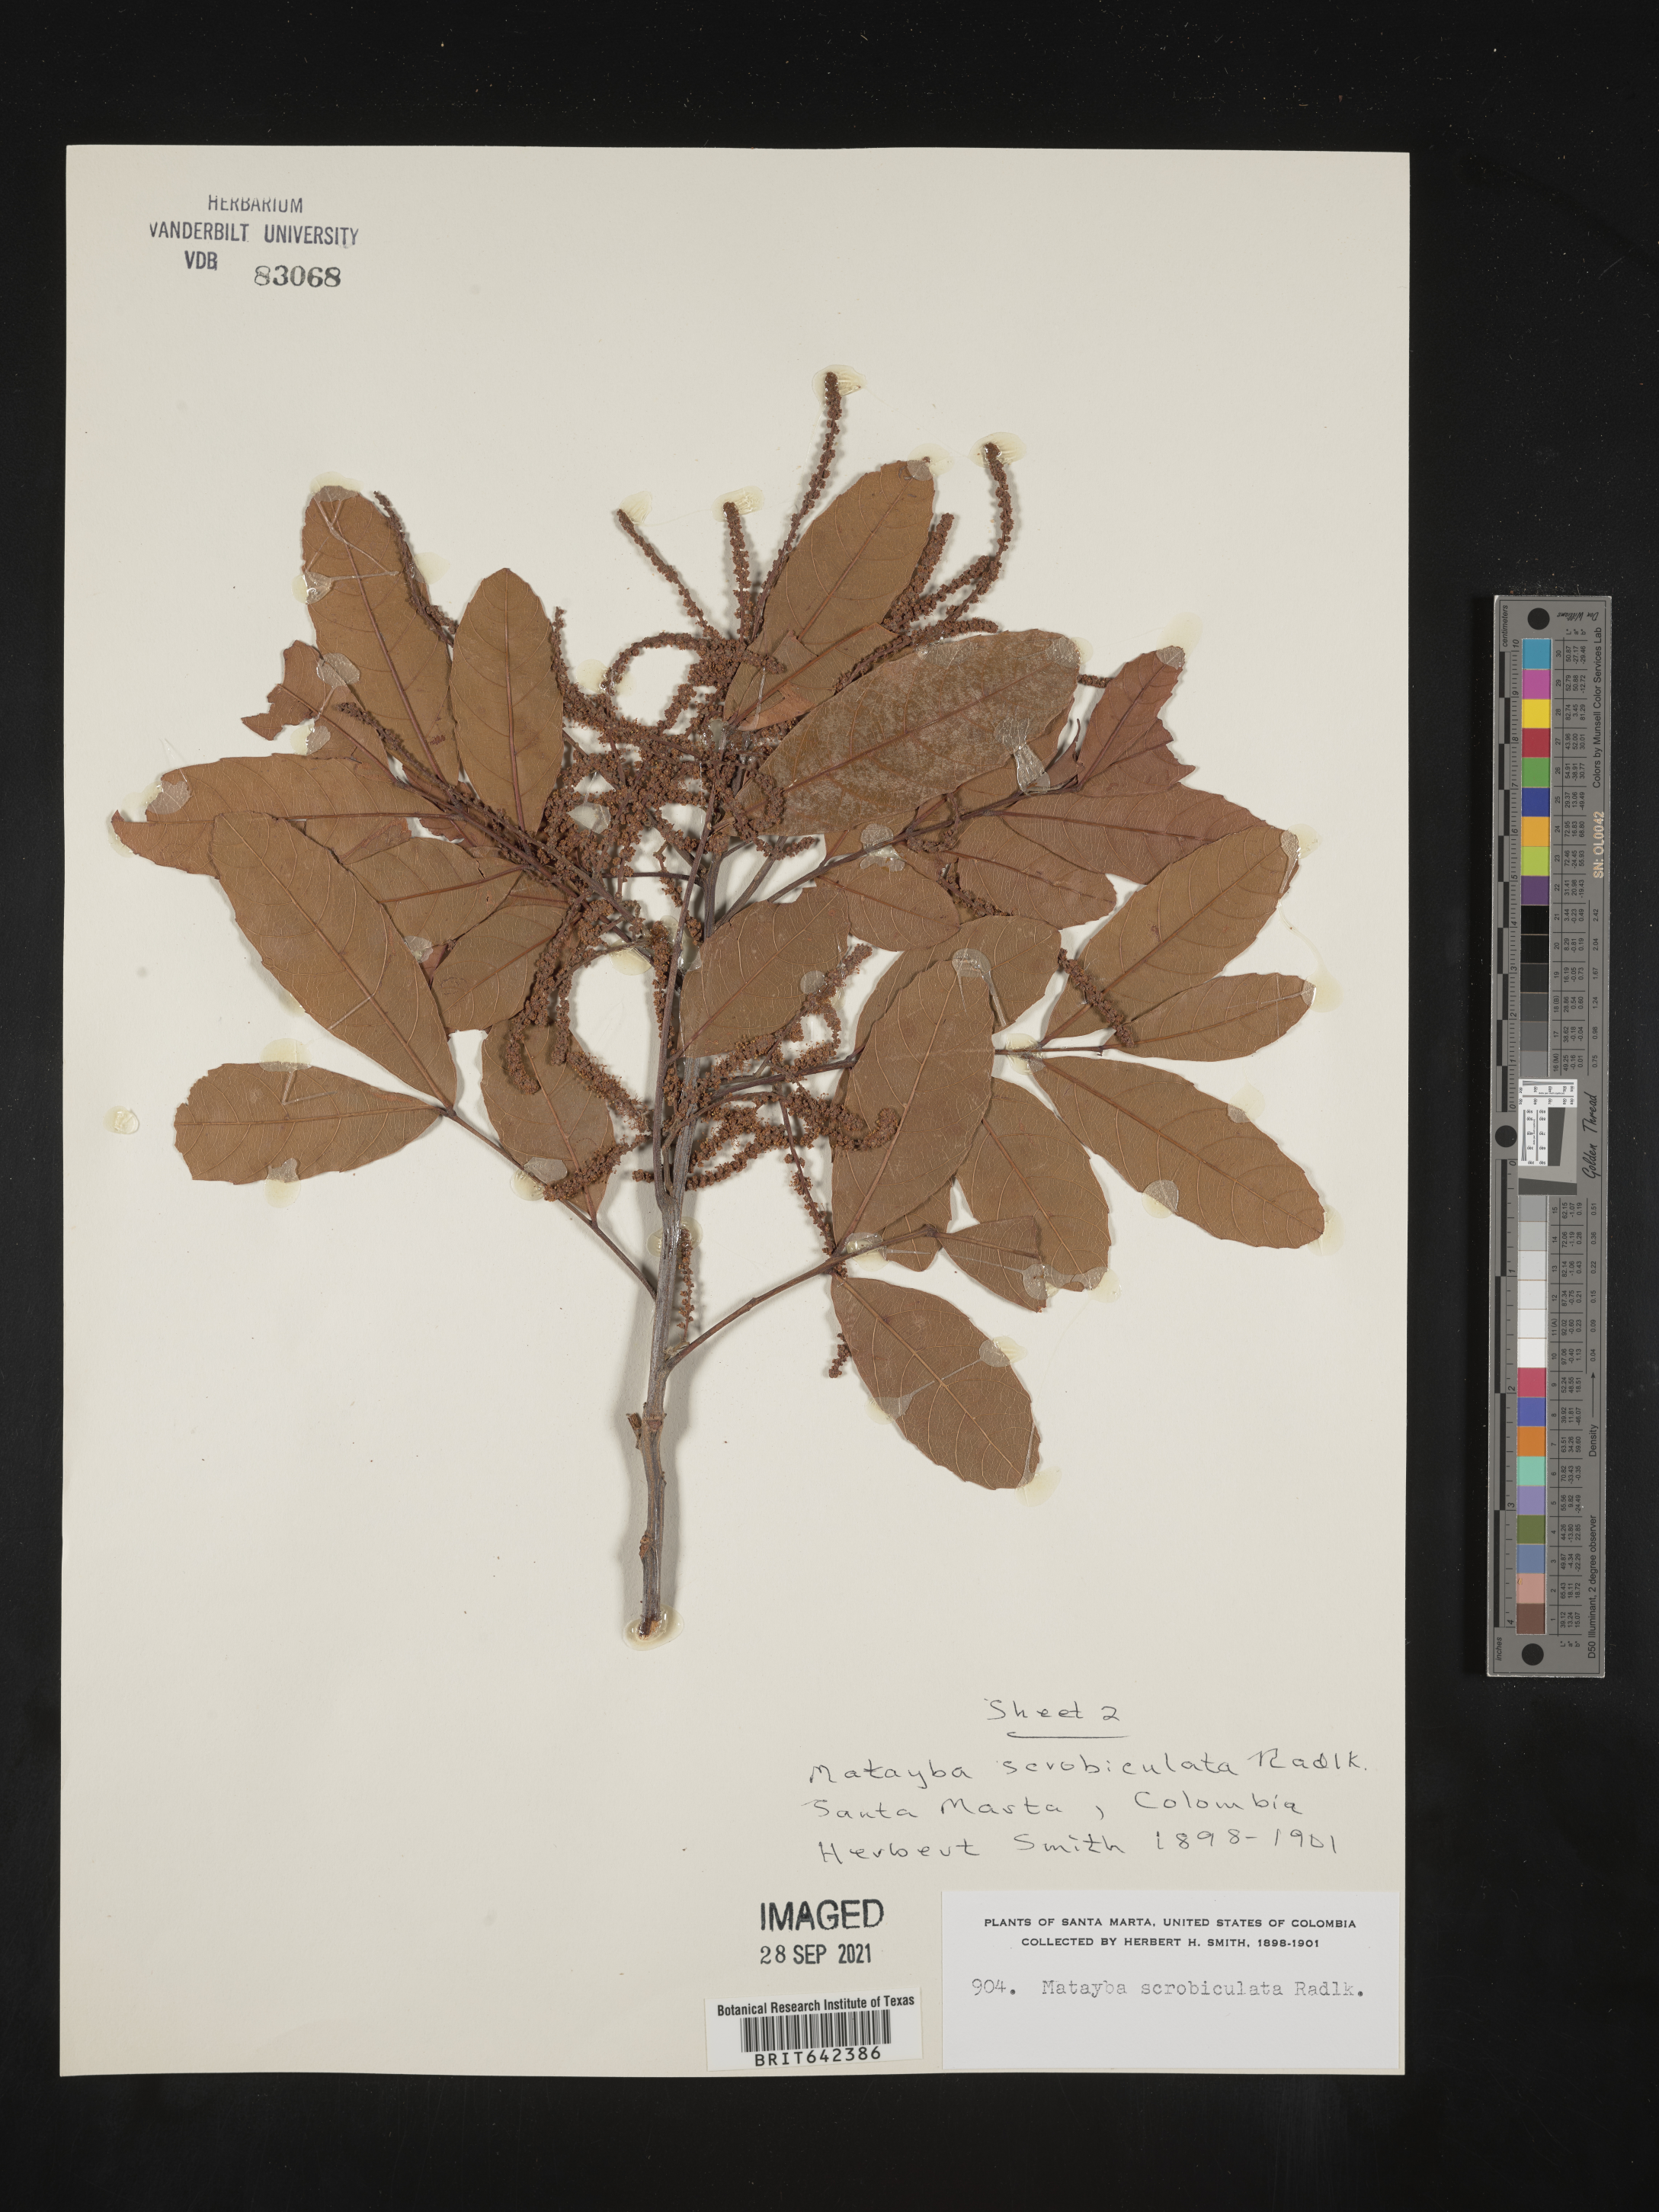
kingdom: Plantae
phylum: Tracheophyta
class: Magnoliopsida
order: Sapindales
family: Sapindaceae
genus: Matayba
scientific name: Matayba
